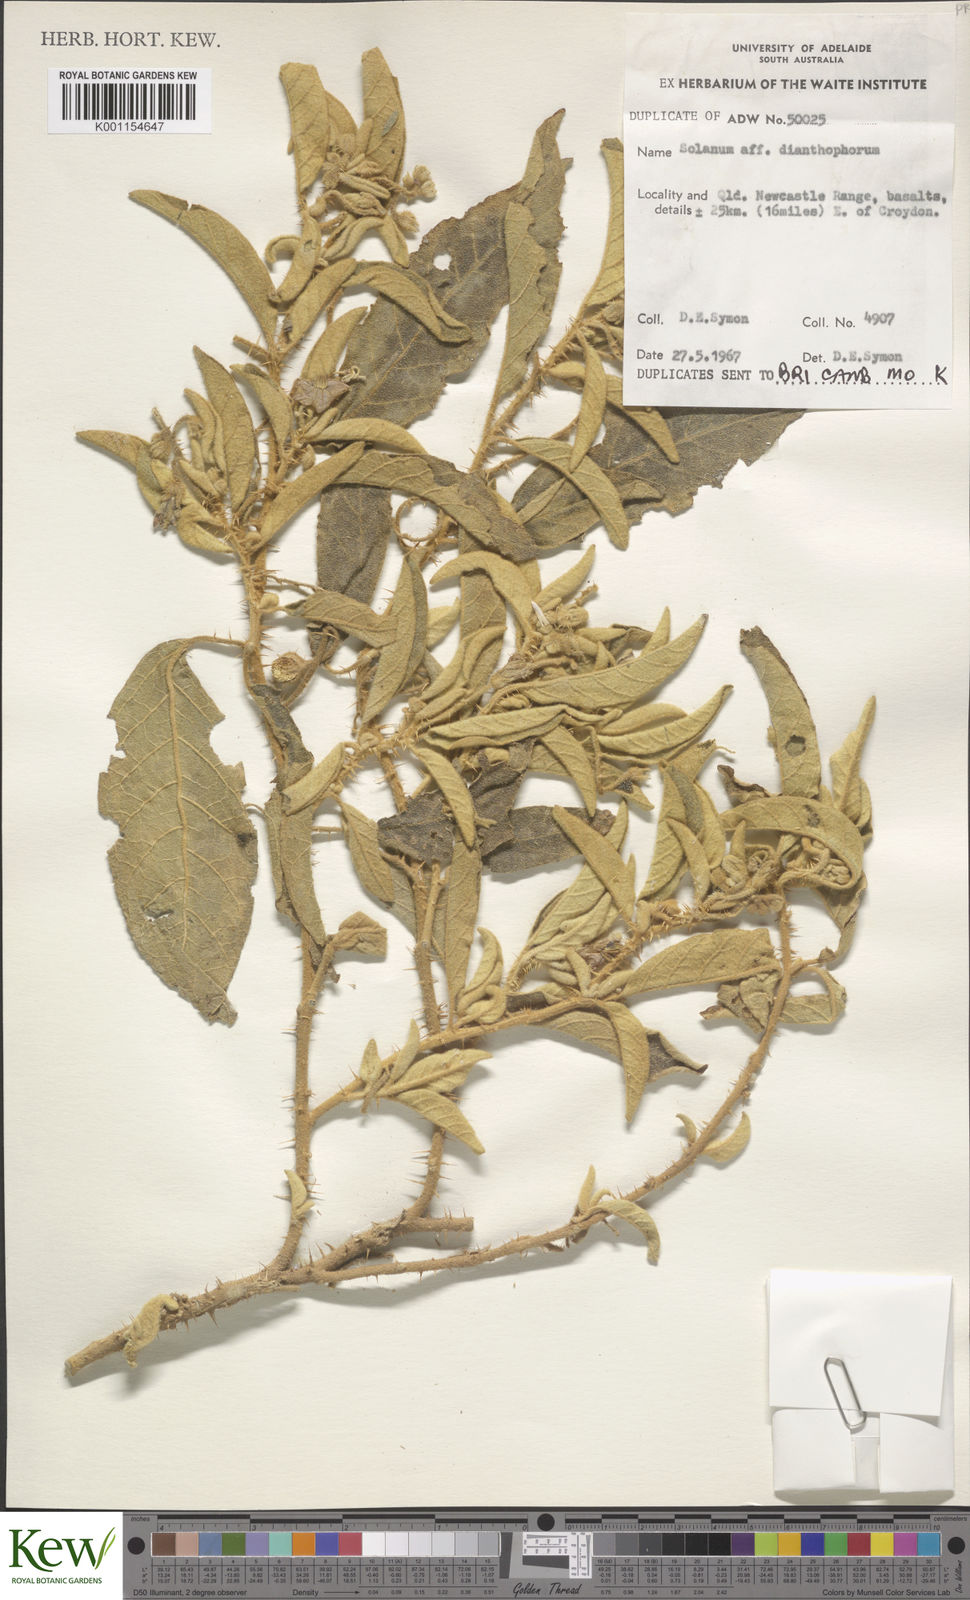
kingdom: Plantae
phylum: Tracheophyta
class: Magnoliopsida
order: Solanales
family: Solanaceae
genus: Solanum
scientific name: Solanum dianthophorum
